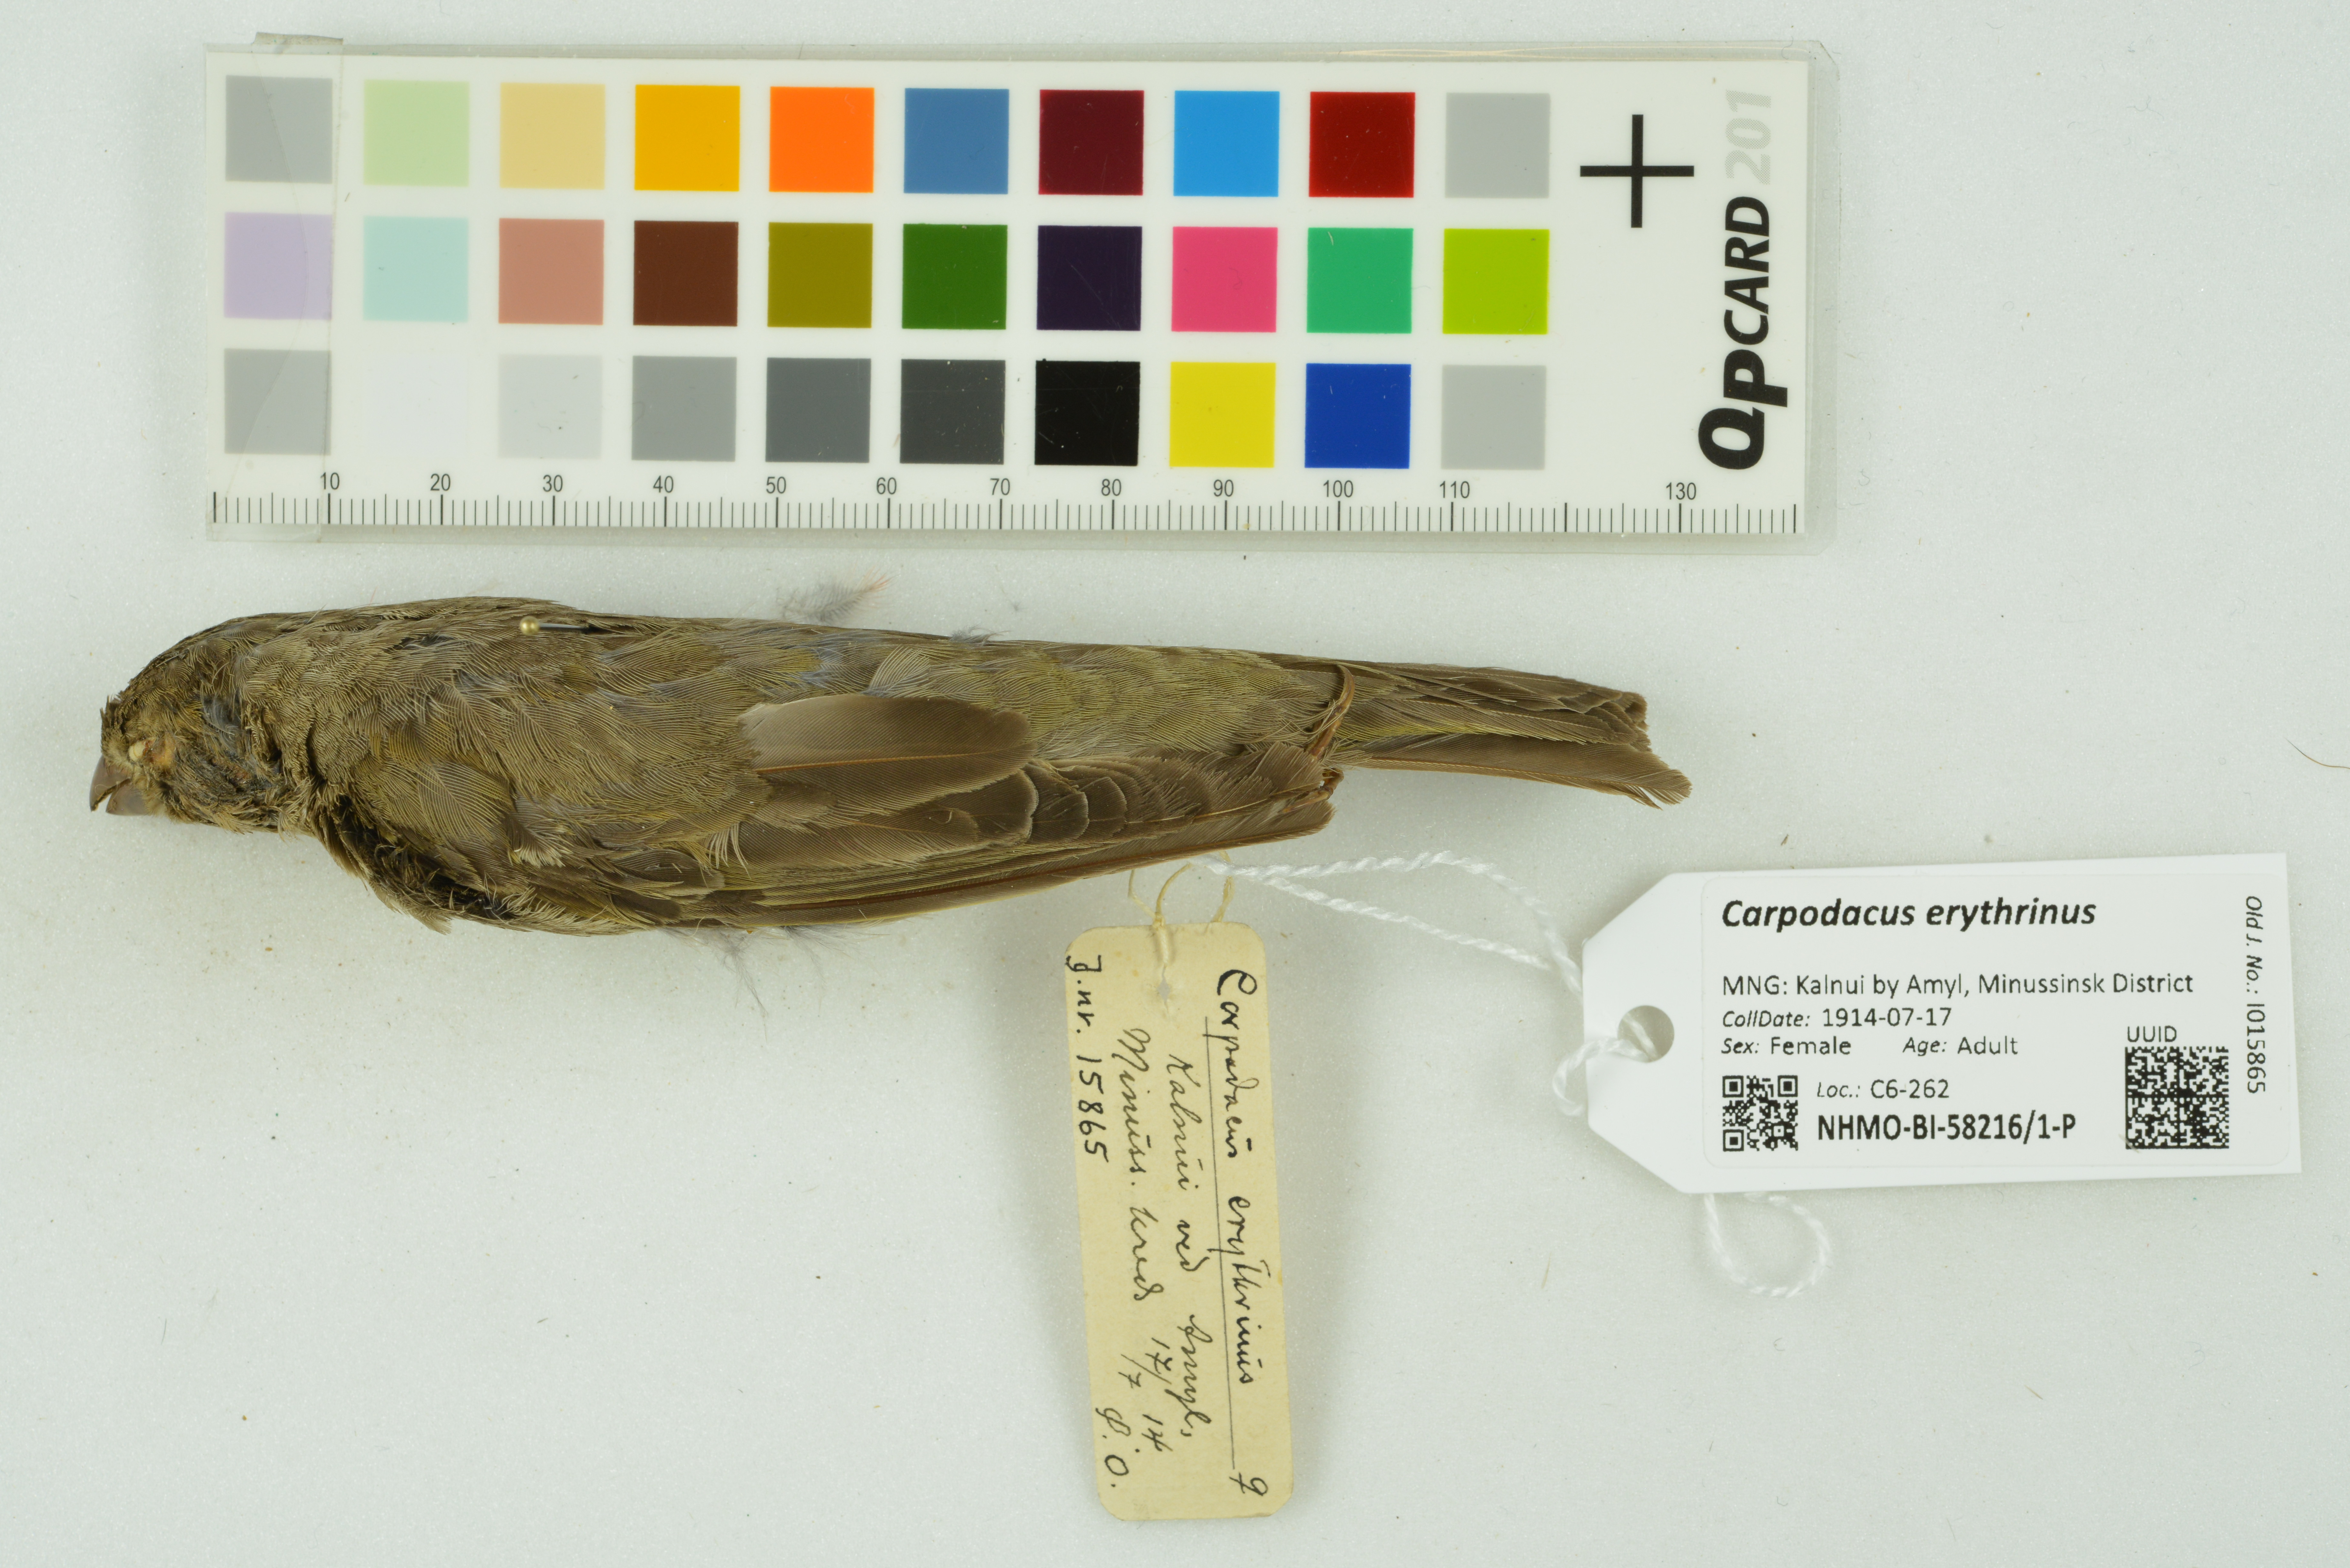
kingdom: Animalia
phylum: Chordata
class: Aves
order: Passeriformes
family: Fringillidae
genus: Carpodacus
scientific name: Carpodacus erythrinus
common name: Common rosefinch
